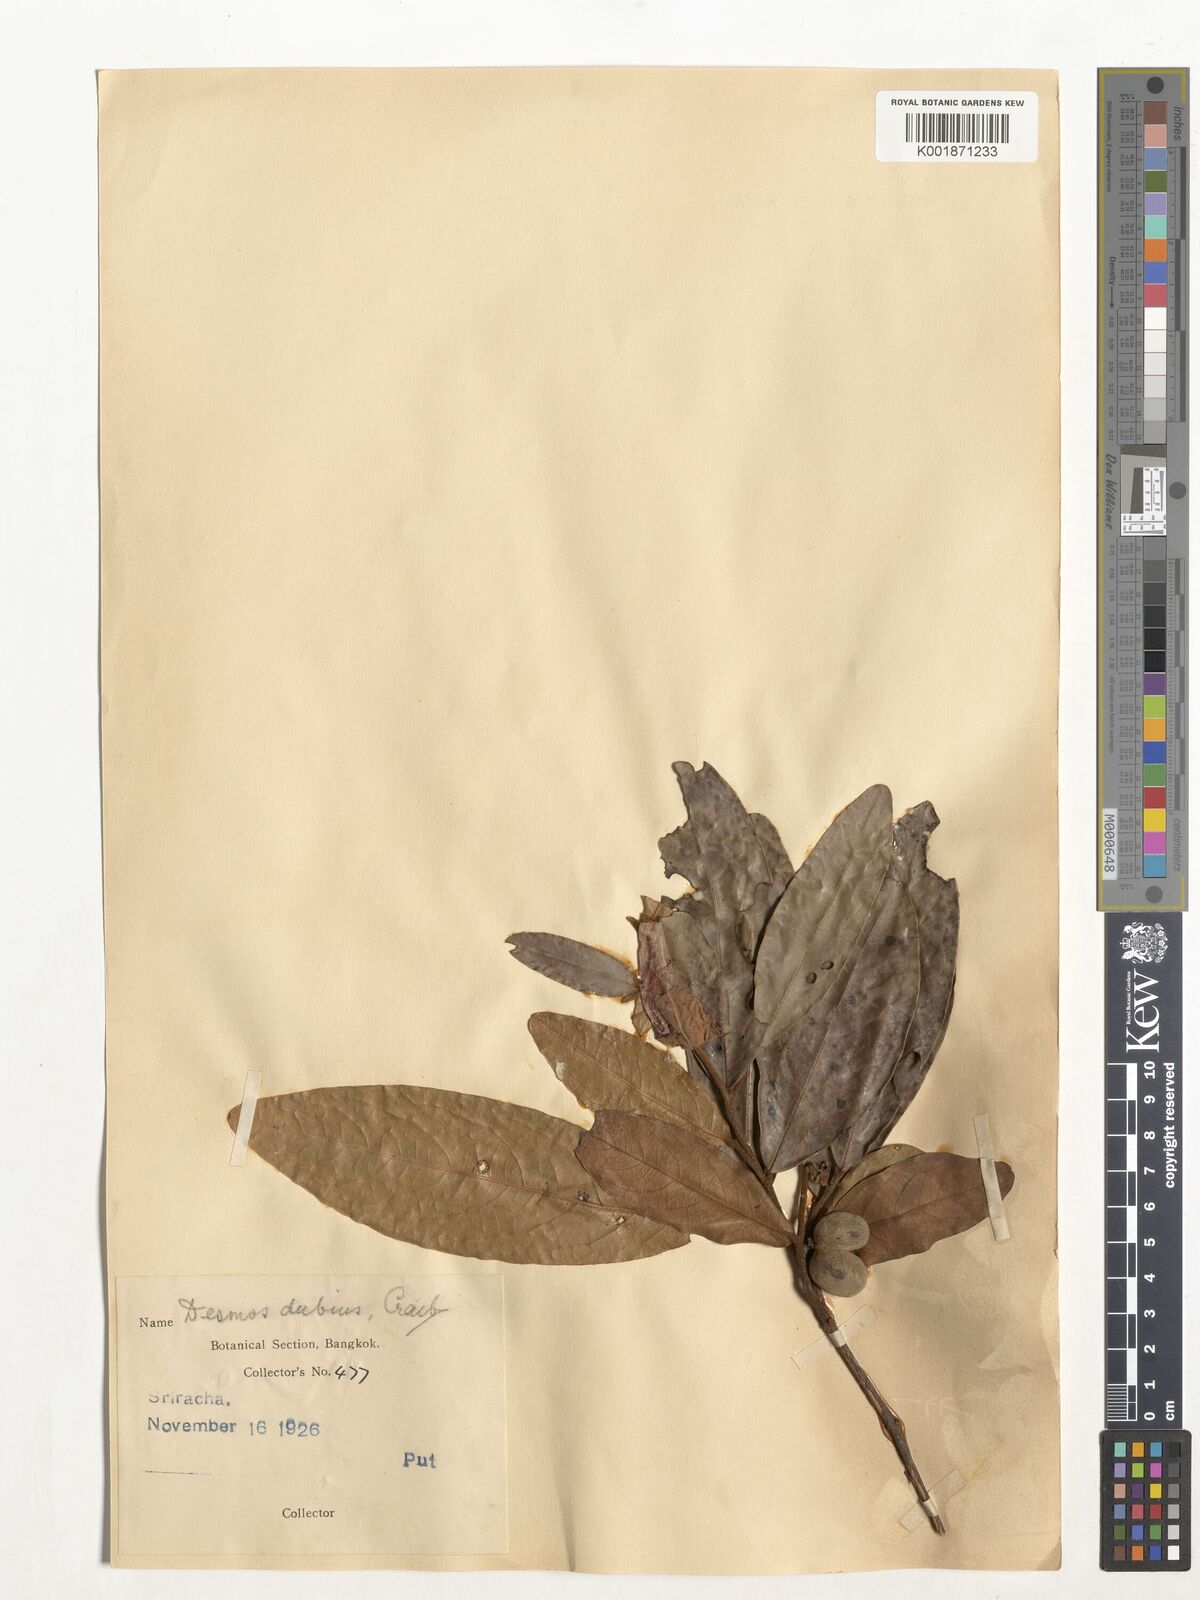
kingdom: Plantae
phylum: Tracheophyta
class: Magnoliopsida
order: Magnoliales
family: Annonaceae
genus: Polyalthia
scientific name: Polyalthia
